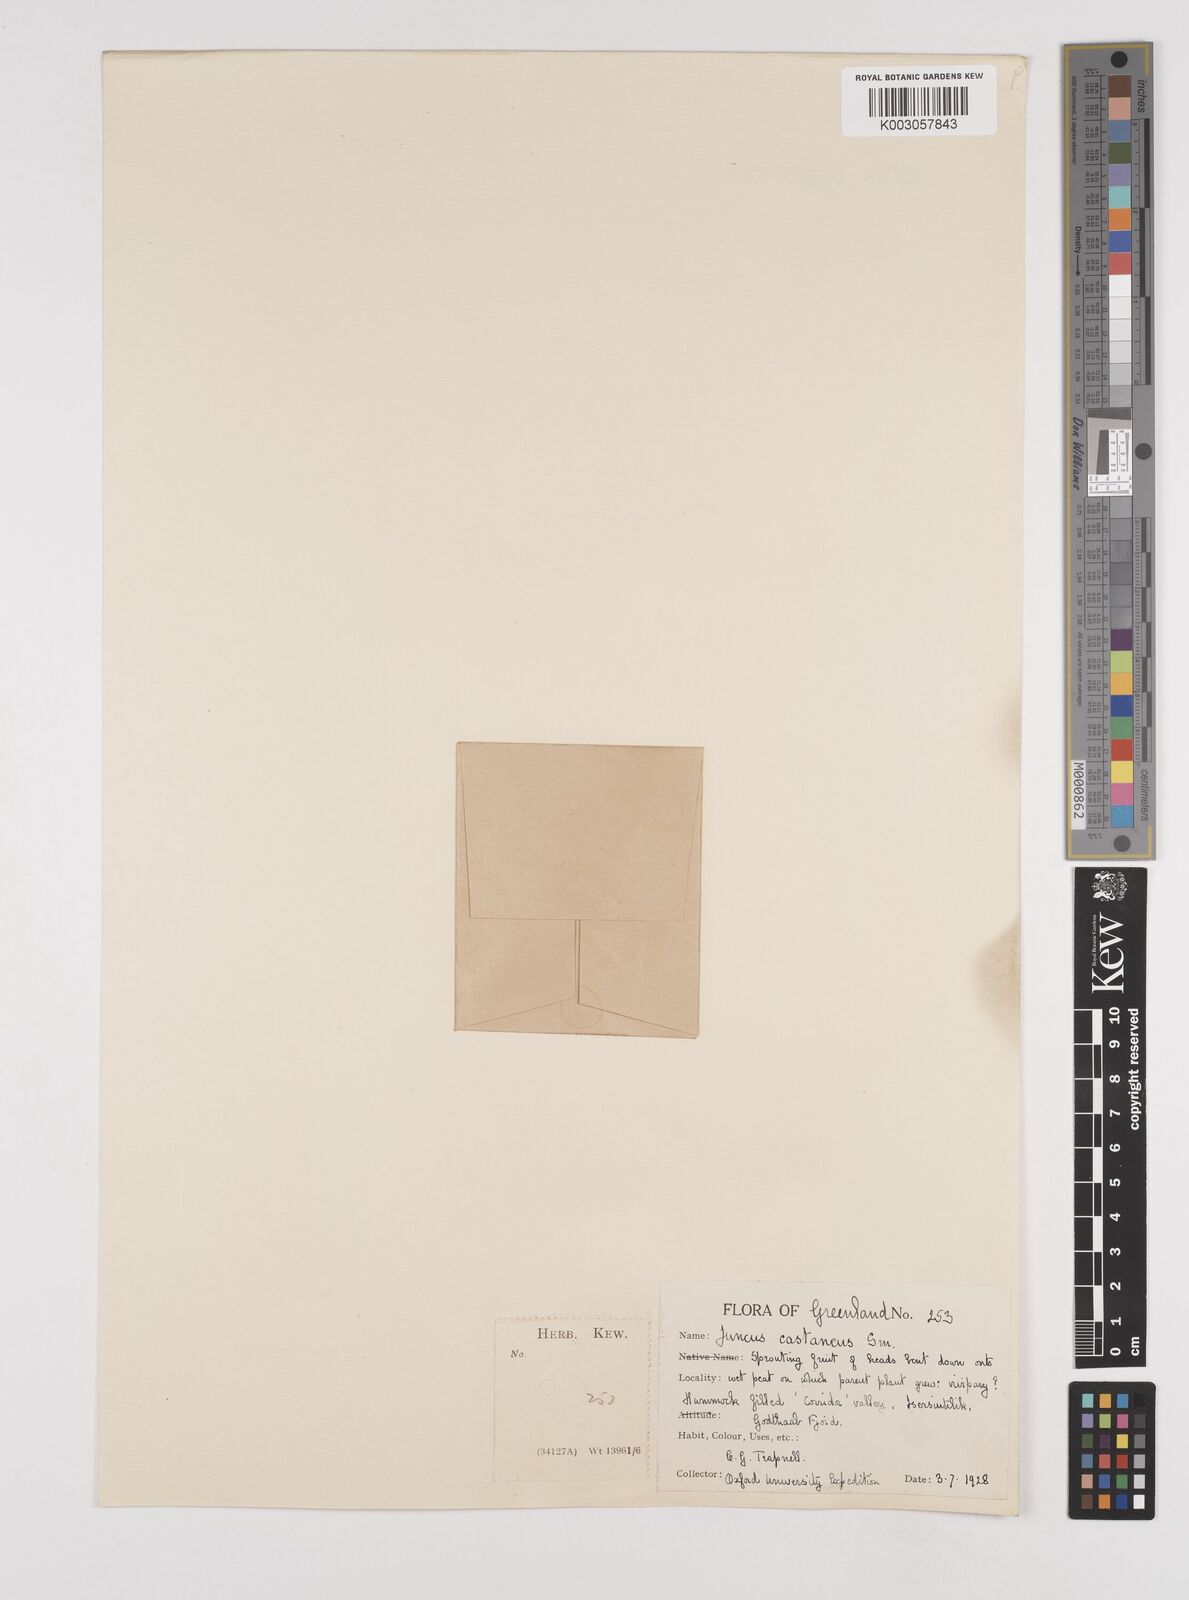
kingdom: Plantae
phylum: Tracheophyta
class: Liliopsida
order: Poales
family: Juncaceae
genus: Juncus
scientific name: Juncus castaneus
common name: Chestnut rush
